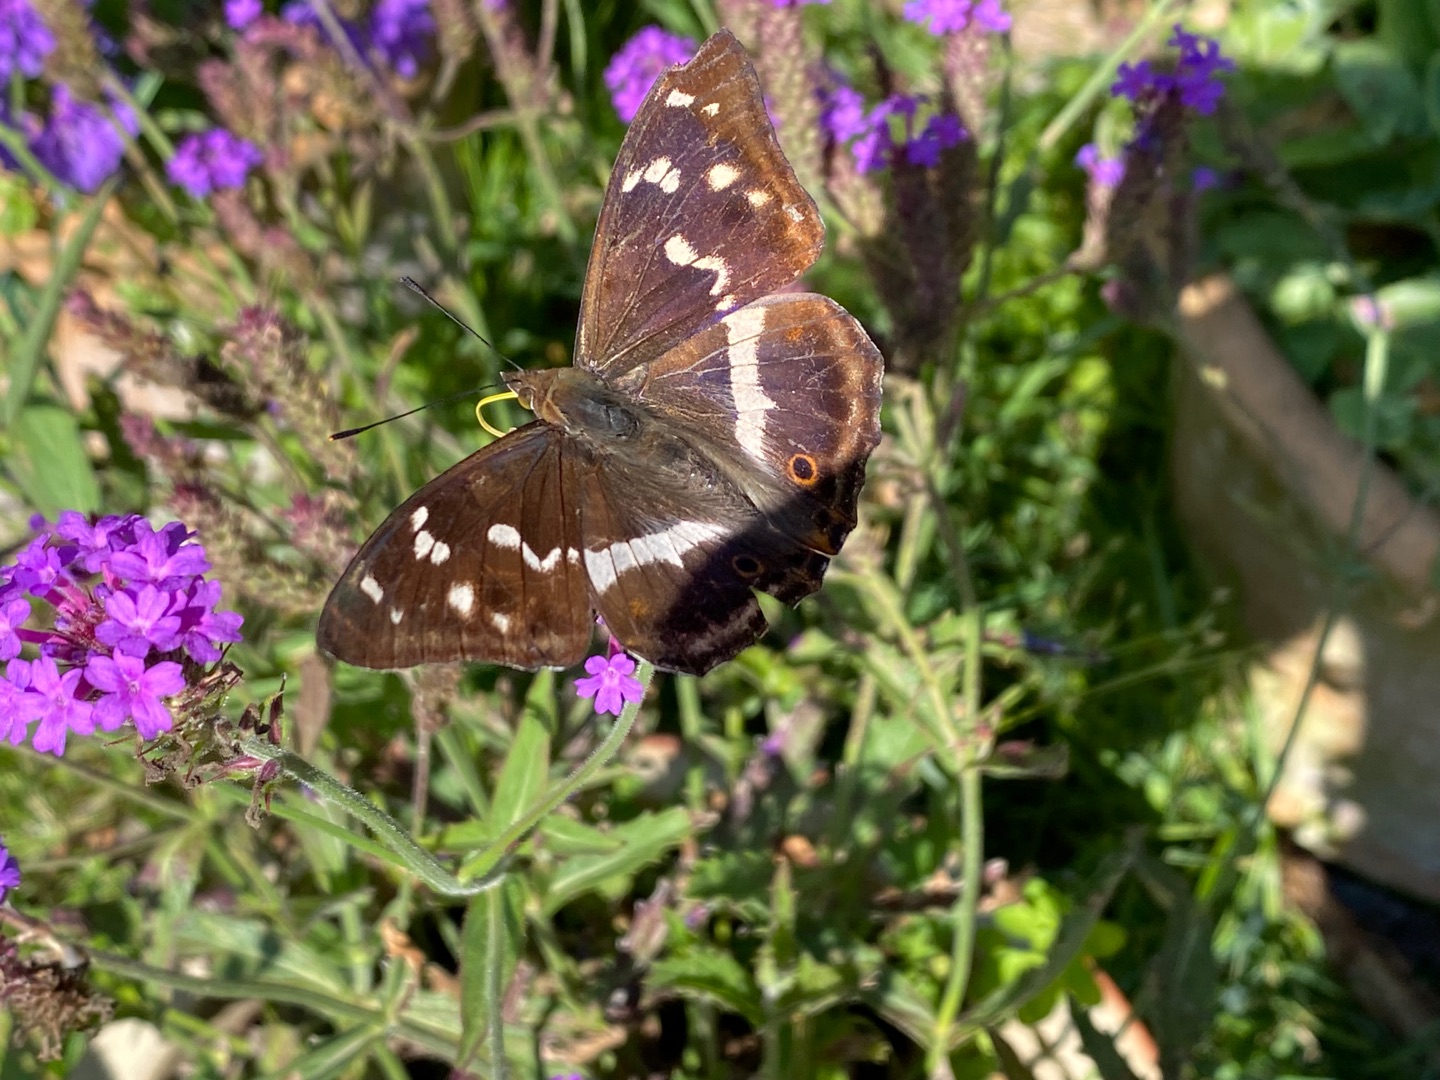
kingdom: Animalia
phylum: Arthropoda
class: Insecta
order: Lepidoptera
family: Nymphalidae
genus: Apatura
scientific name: Apatura iris
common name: Iris
